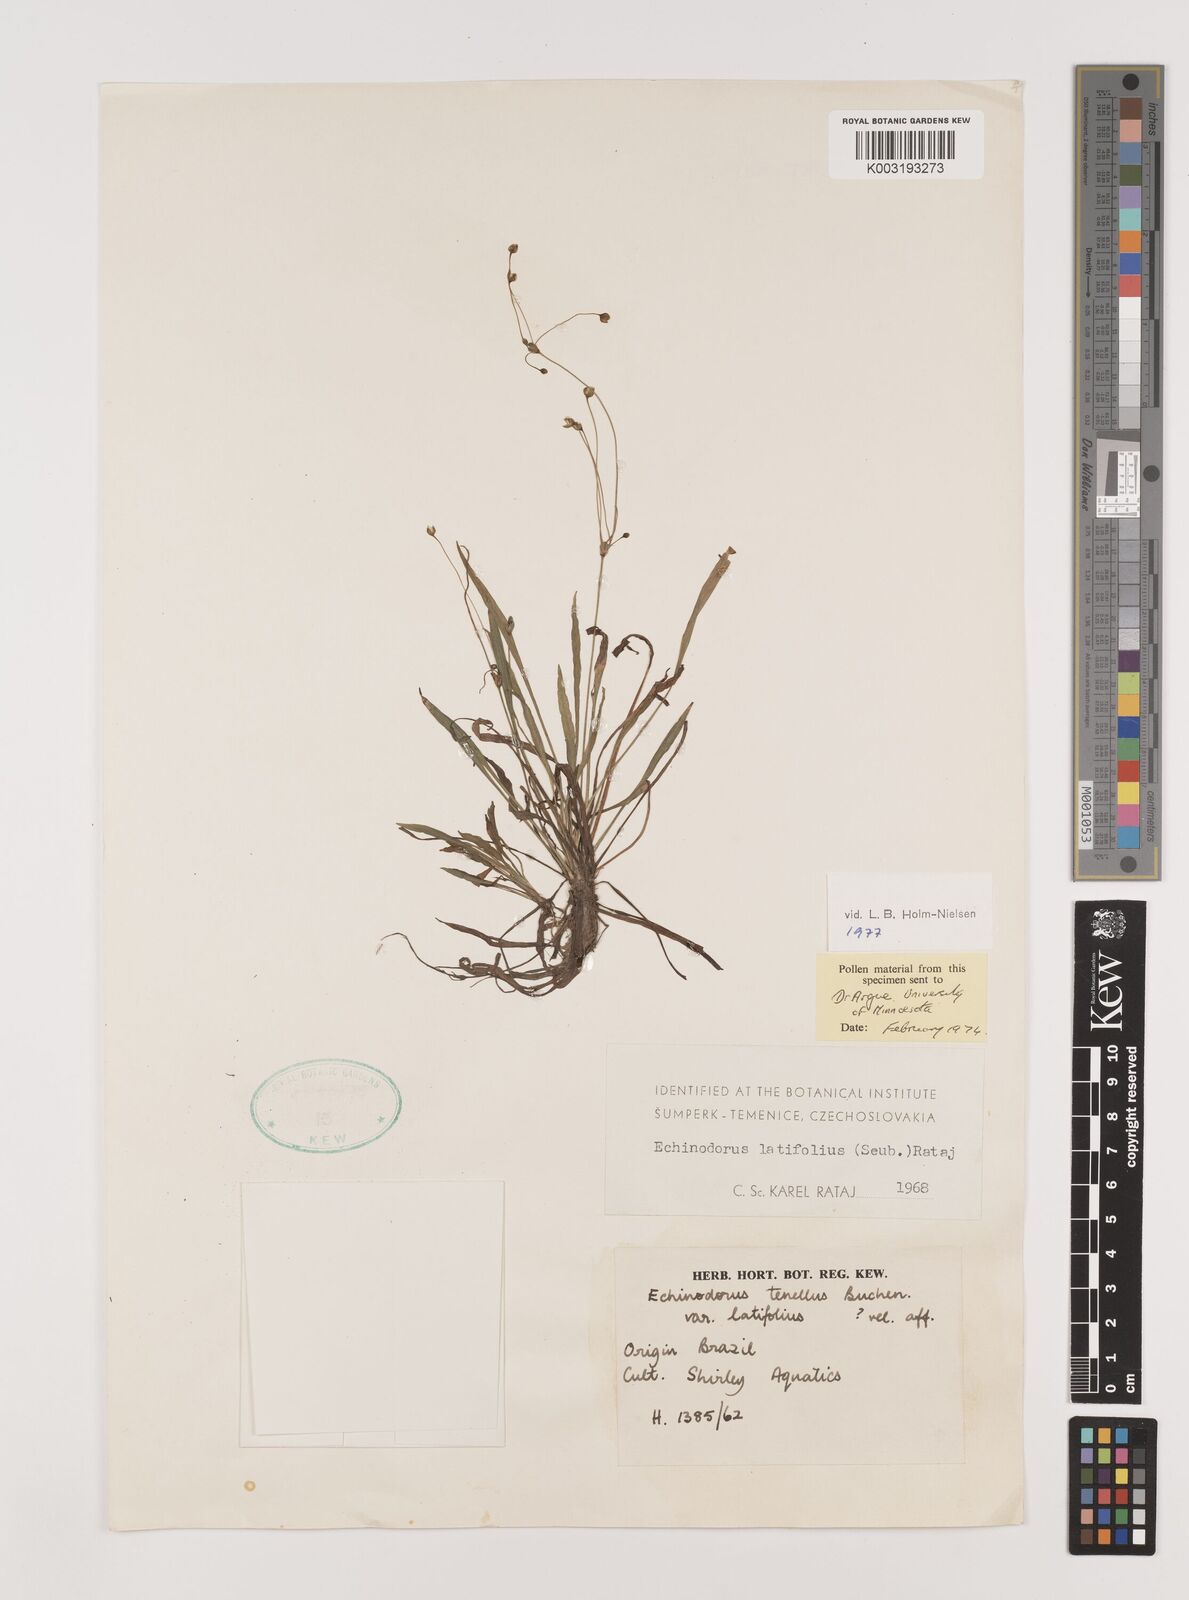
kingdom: Plantae
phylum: Tracheophyta
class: Liliopsida
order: Alismatales
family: Alismataceae
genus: Helanthium
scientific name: Helanthium bolivianum
